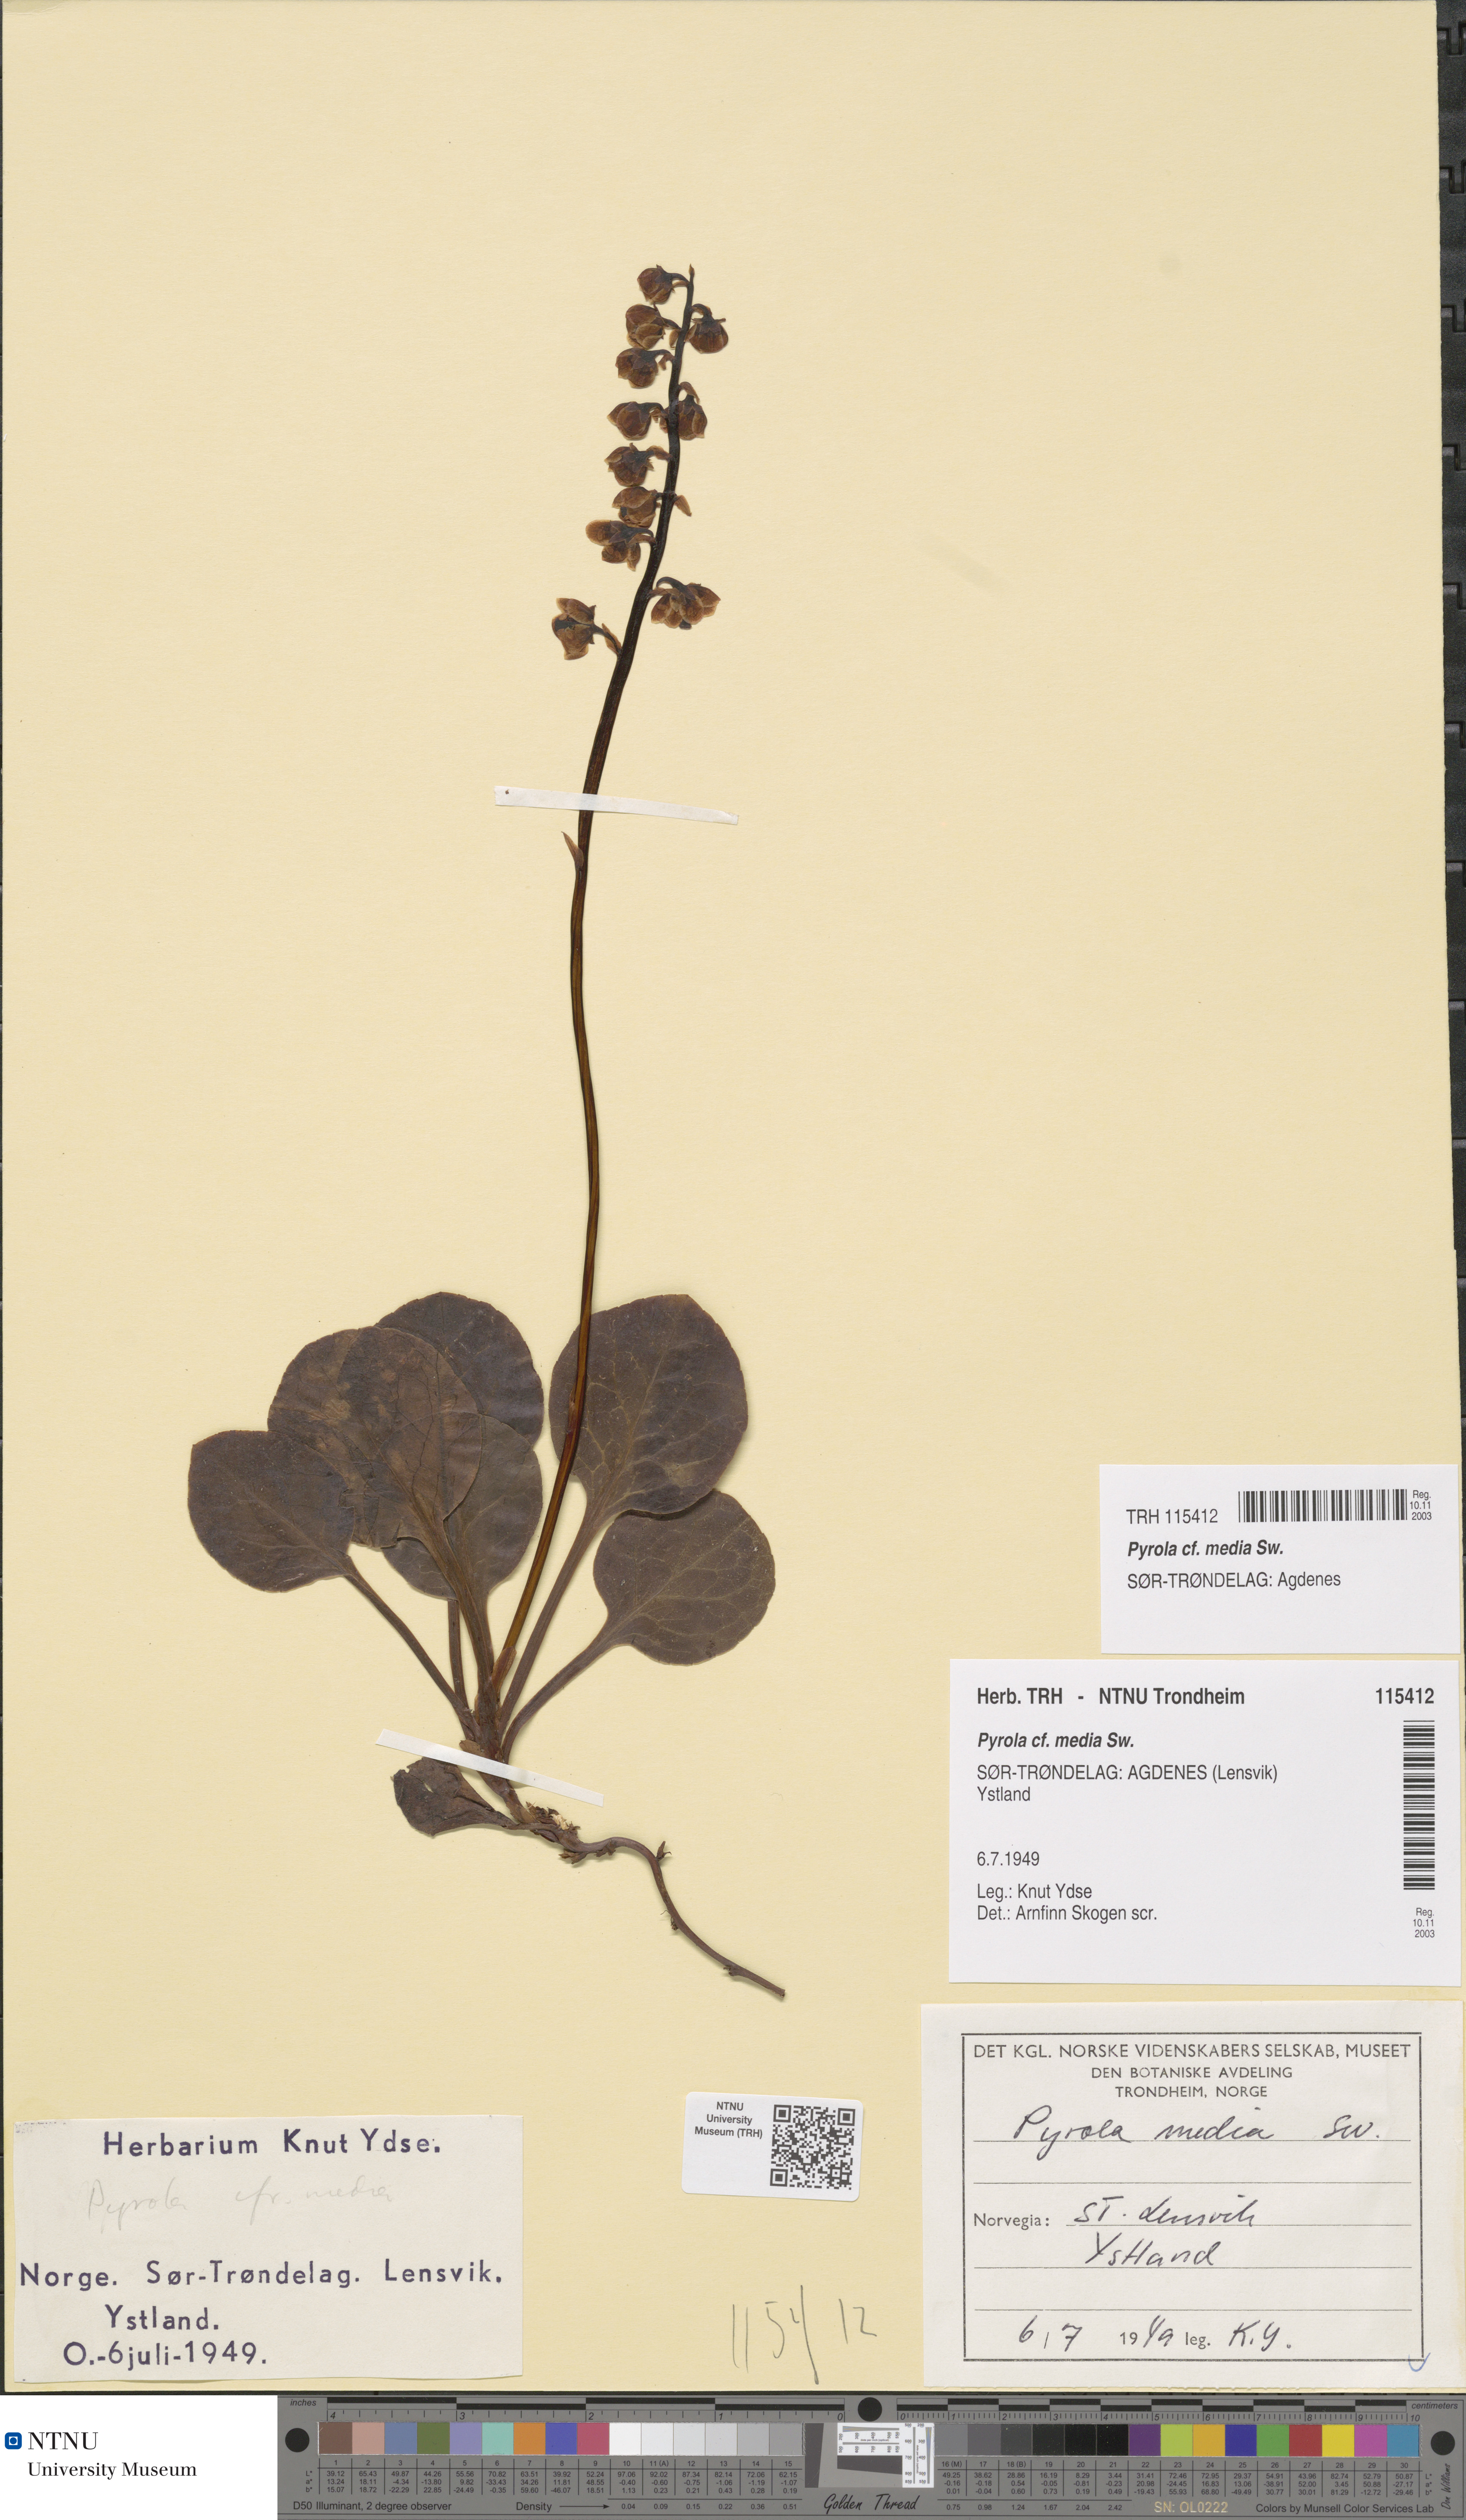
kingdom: Plantae
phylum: Tracheophyta
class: Magnoliopsida
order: Ericales
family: Ericaceae
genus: Pyrola
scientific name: Pyrola media
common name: Intermediate wintergreen
